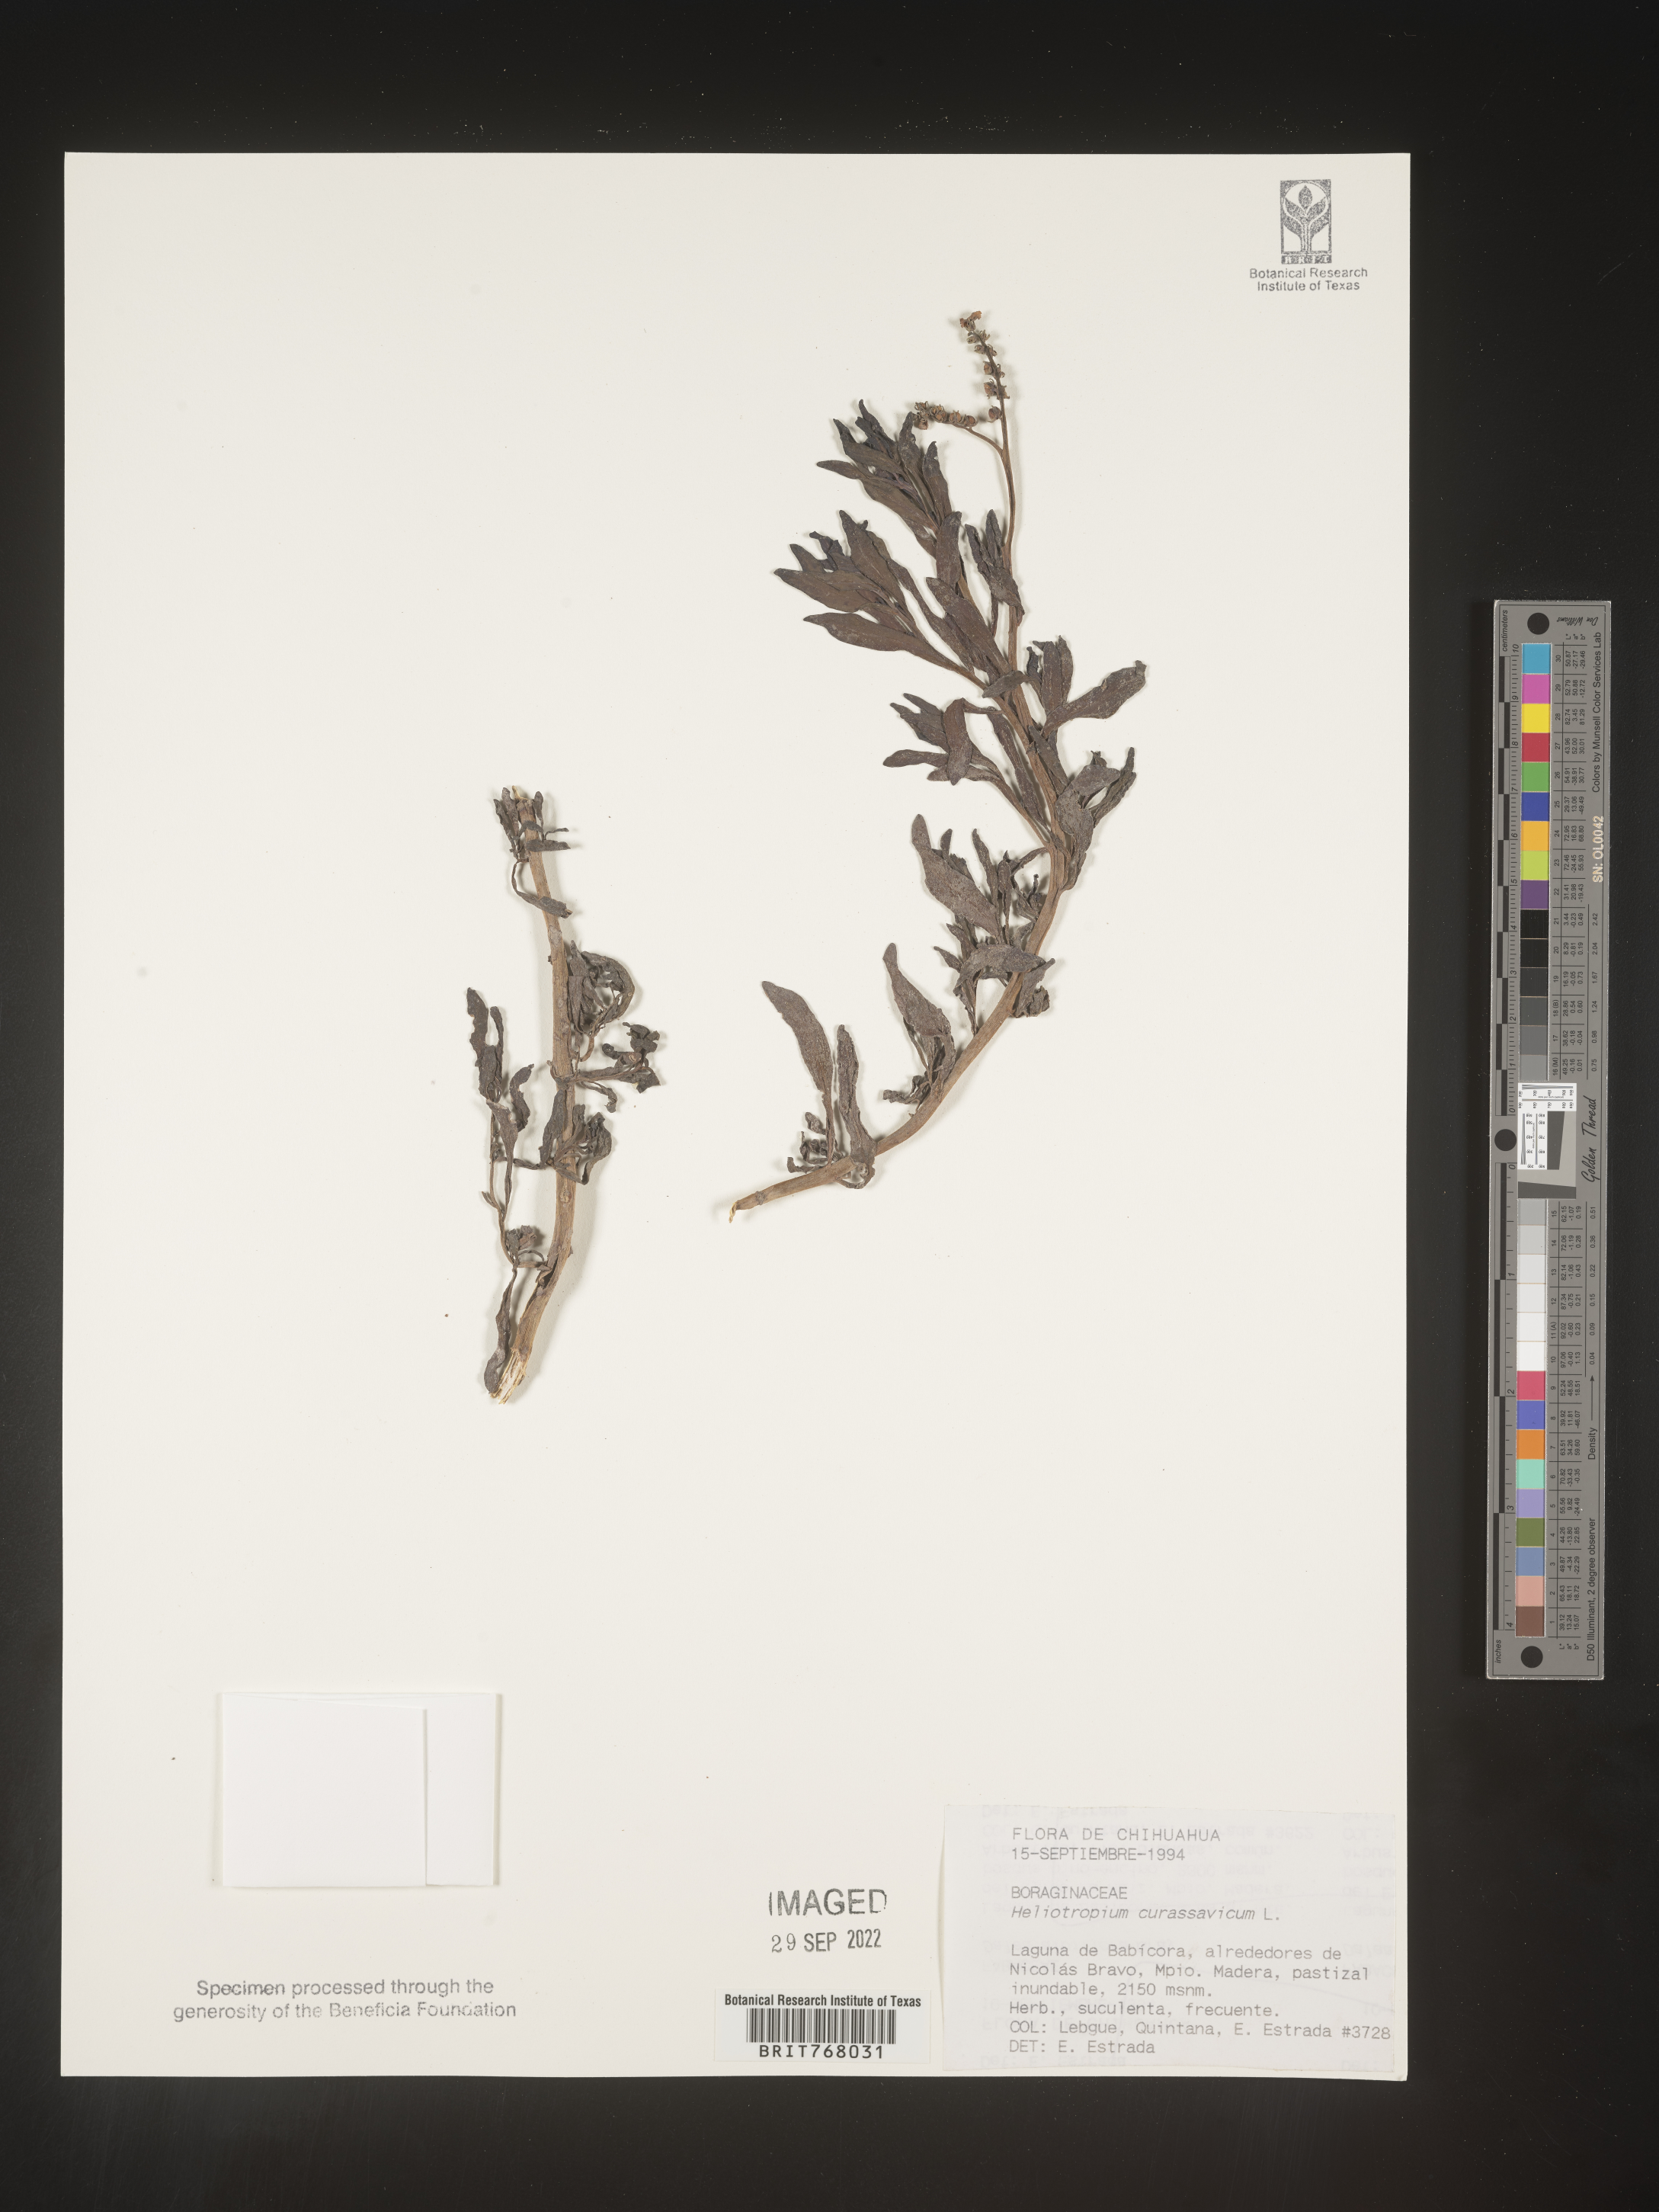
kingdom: Plantae
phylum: Tracheophyta
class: Magnoliopsida
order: Boraginales
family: Heliotropiaceae
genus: Heliotropium
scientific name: Heliotropium curassavicum
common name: Seaside heliotrope
